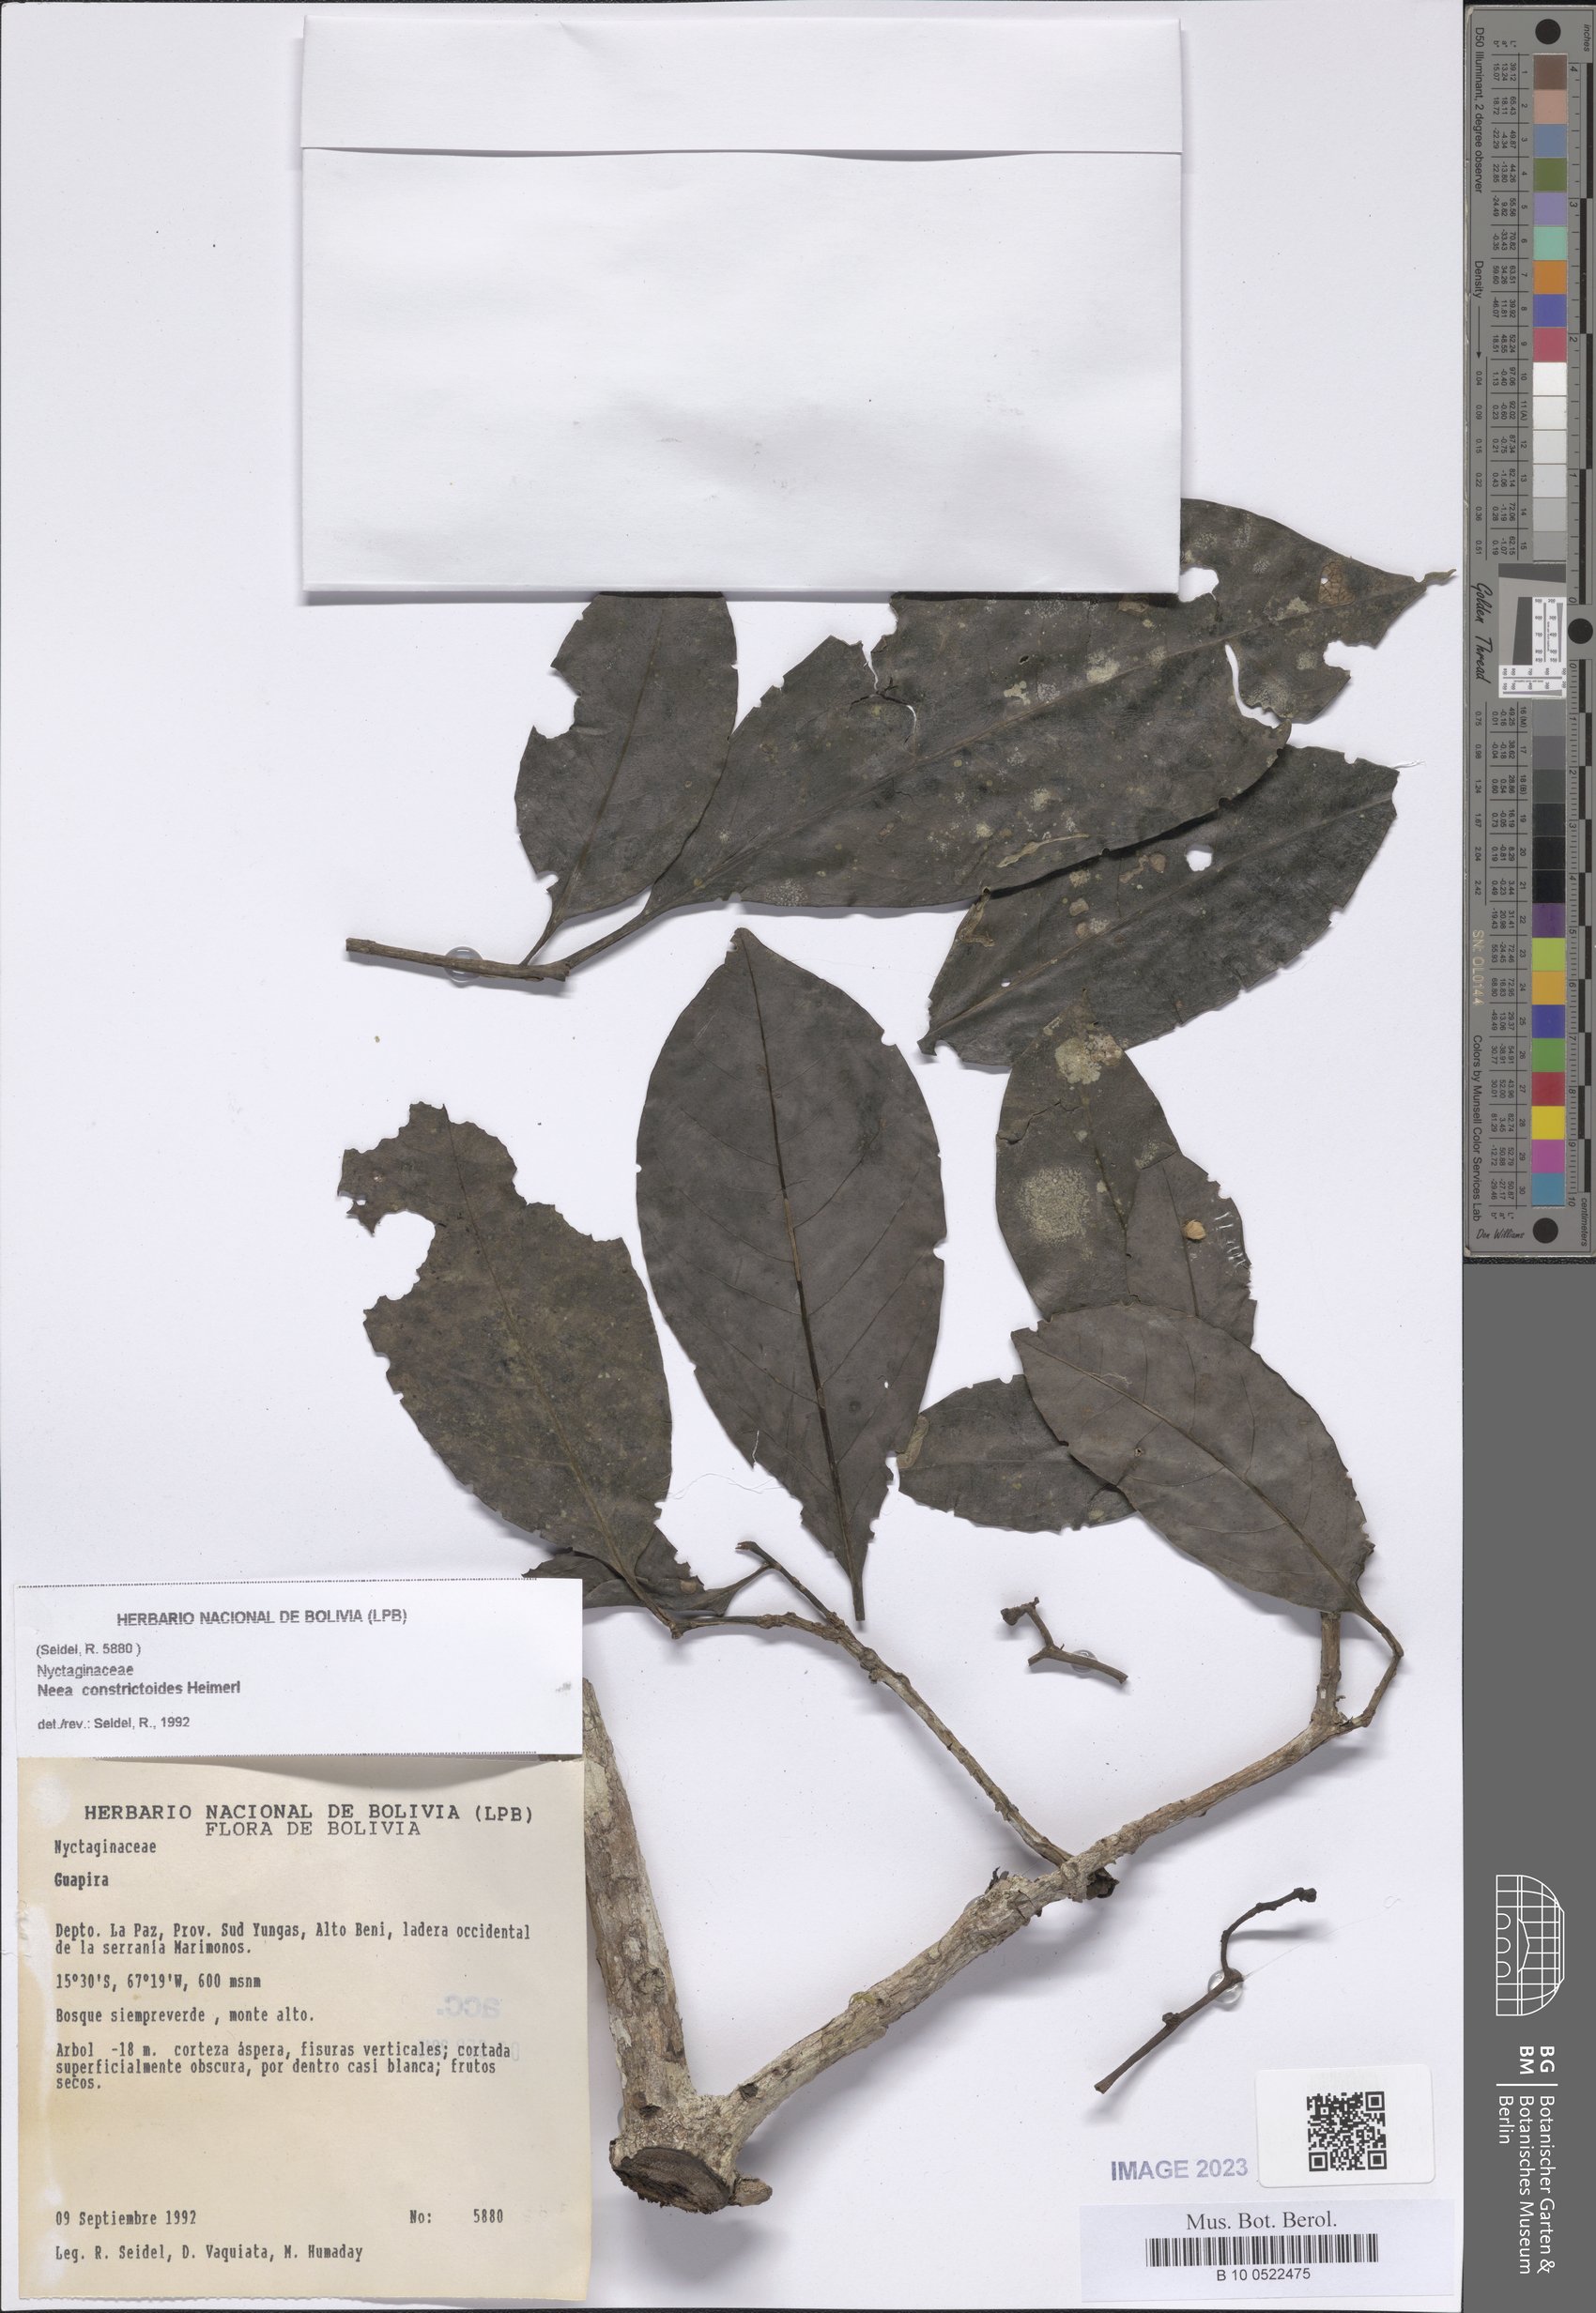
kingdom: Plantae
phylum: Tracheophyta
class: Magnoliopsida
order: Caryophyllales
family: Nyctaginaceae
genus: Neea
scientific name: Neea constrictoides
